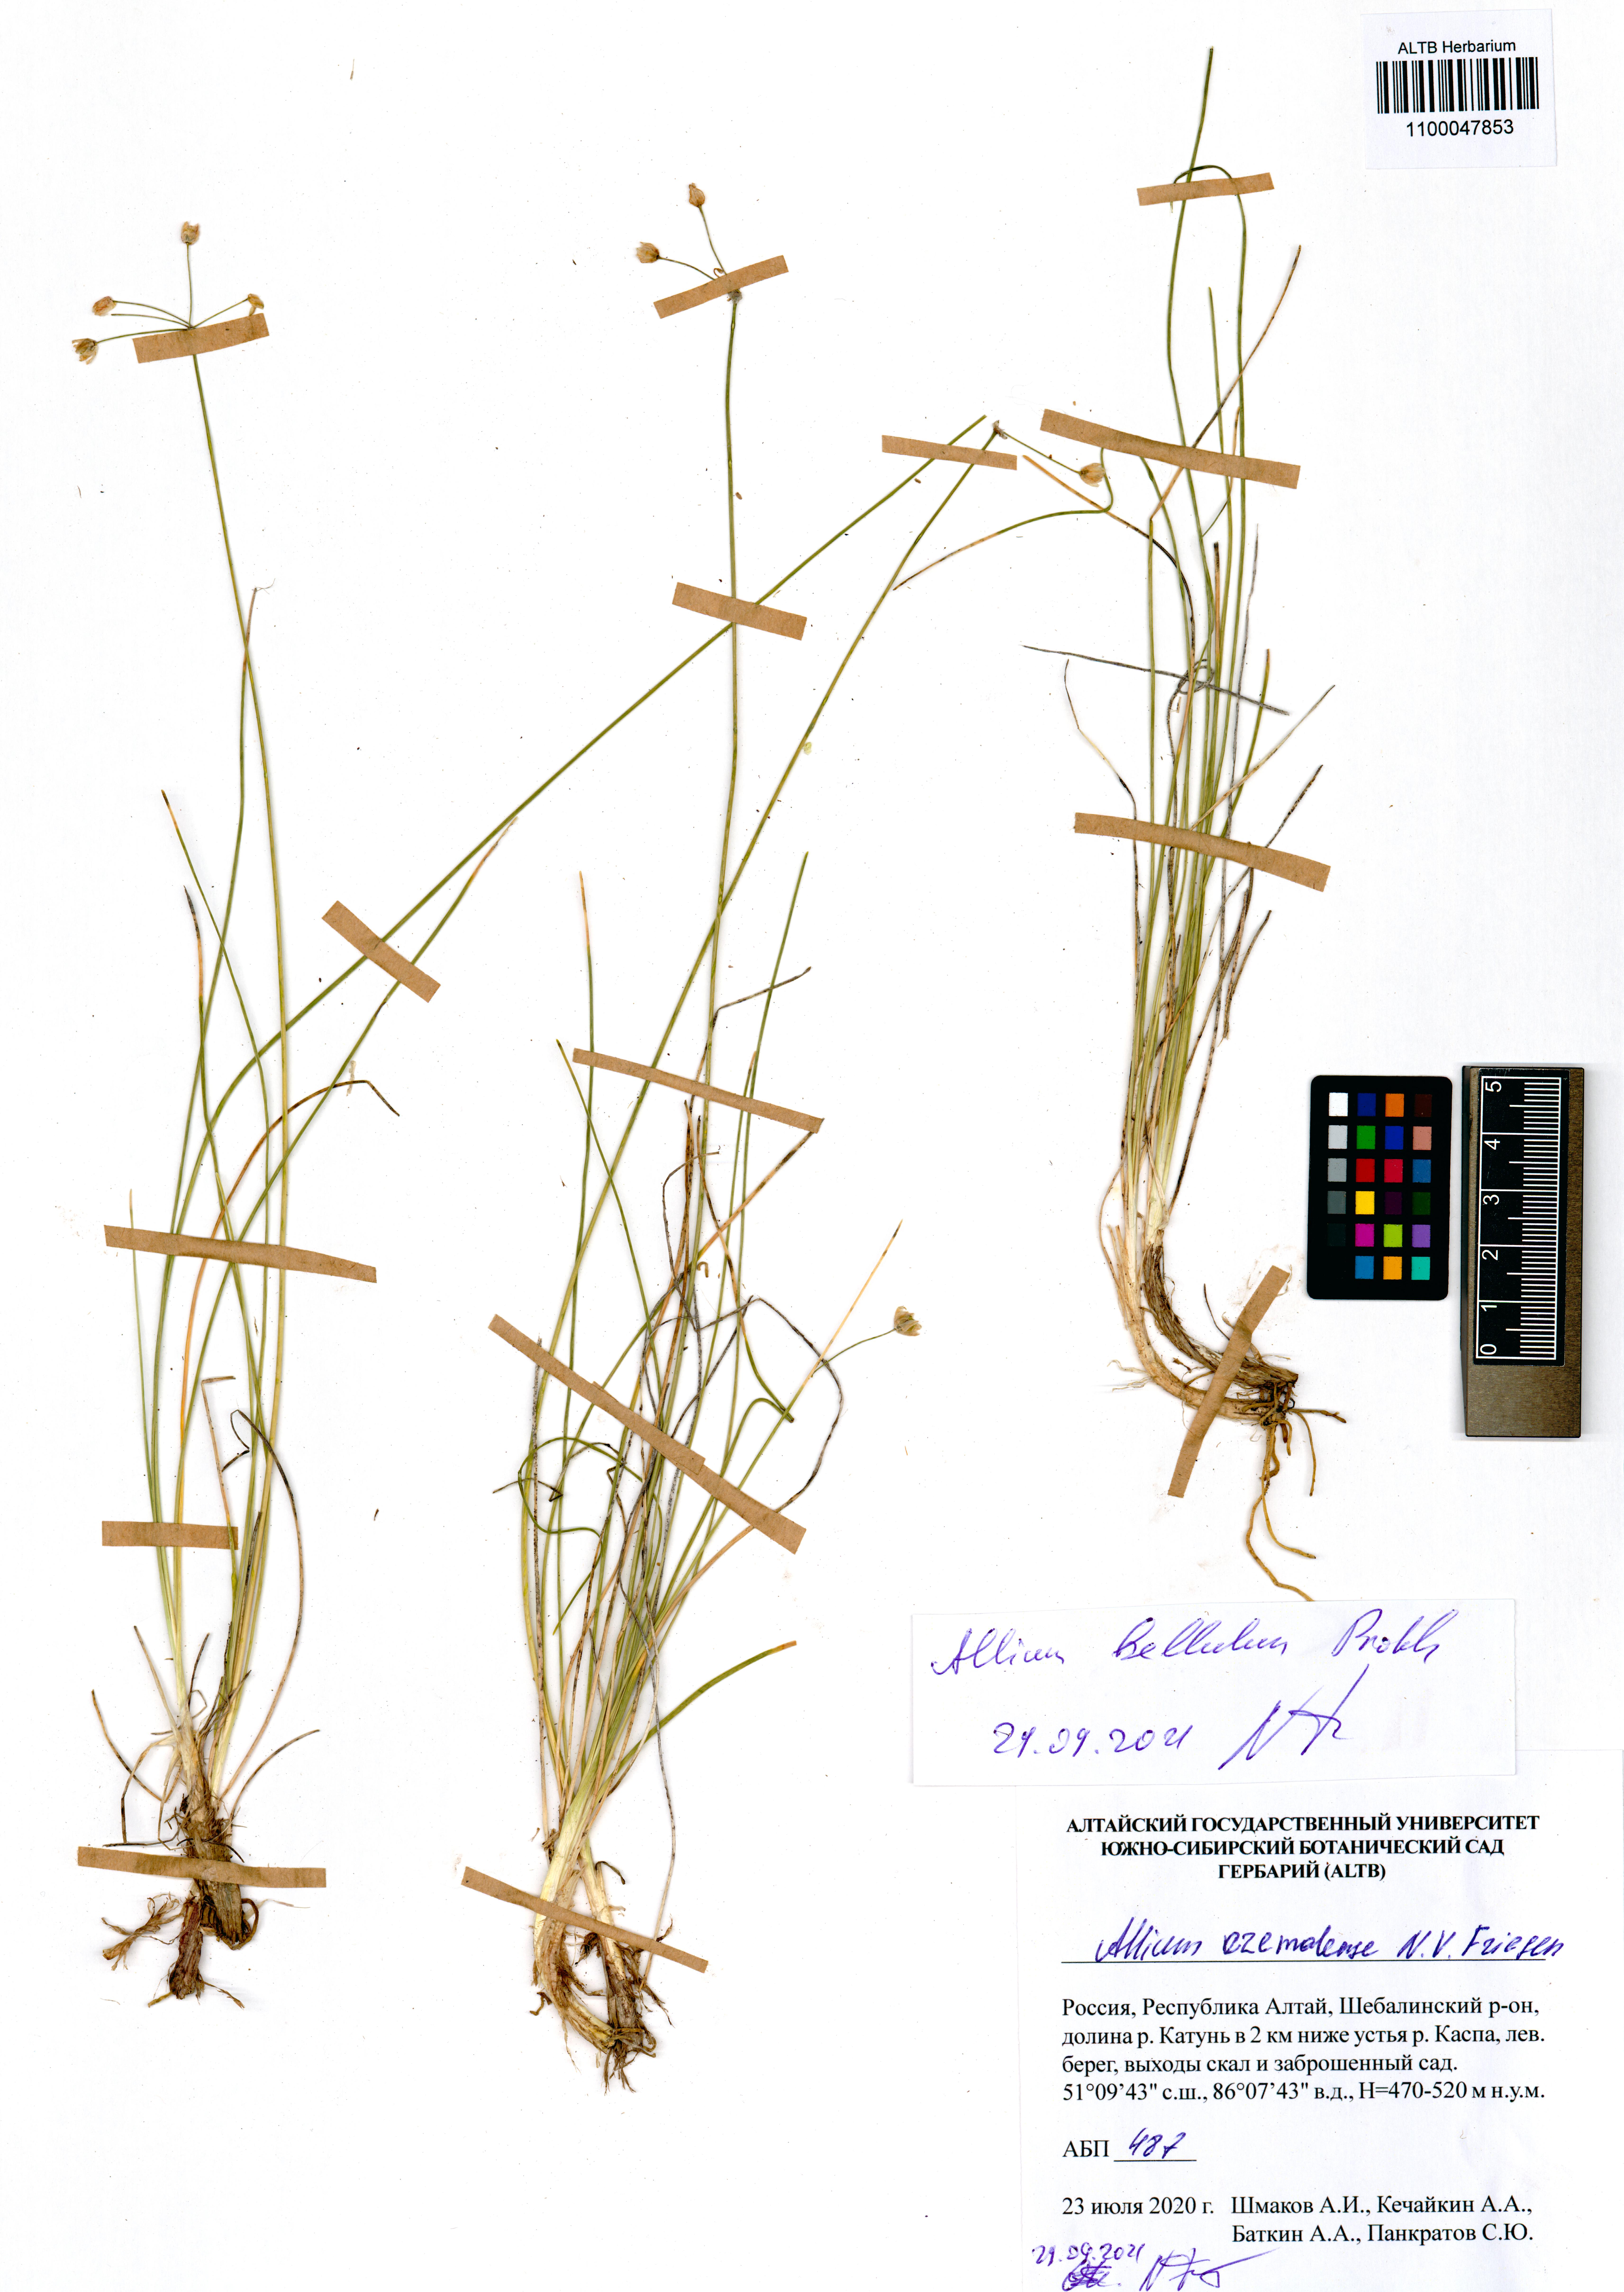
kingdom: Plantae
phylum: Tracheophyta
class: Liliopsida
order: Asparagales
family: Amaryllidaceae
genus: Allium
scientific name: Allium bellulum
